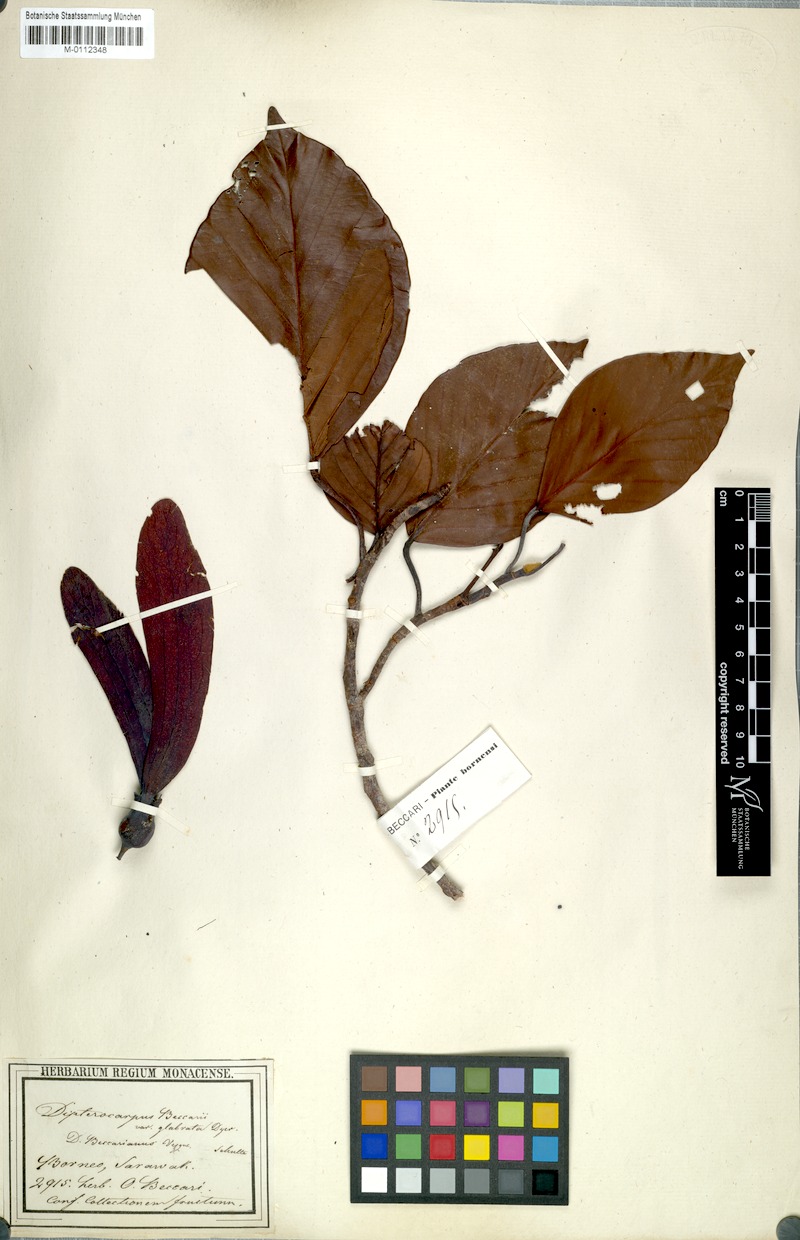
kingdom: Plantae
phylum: Tracheophyta
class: Magnoliopsida
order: Malvales
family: Dipterocarpaceae
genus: Dipterocarpus
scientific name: Dipterocarpus globosus
